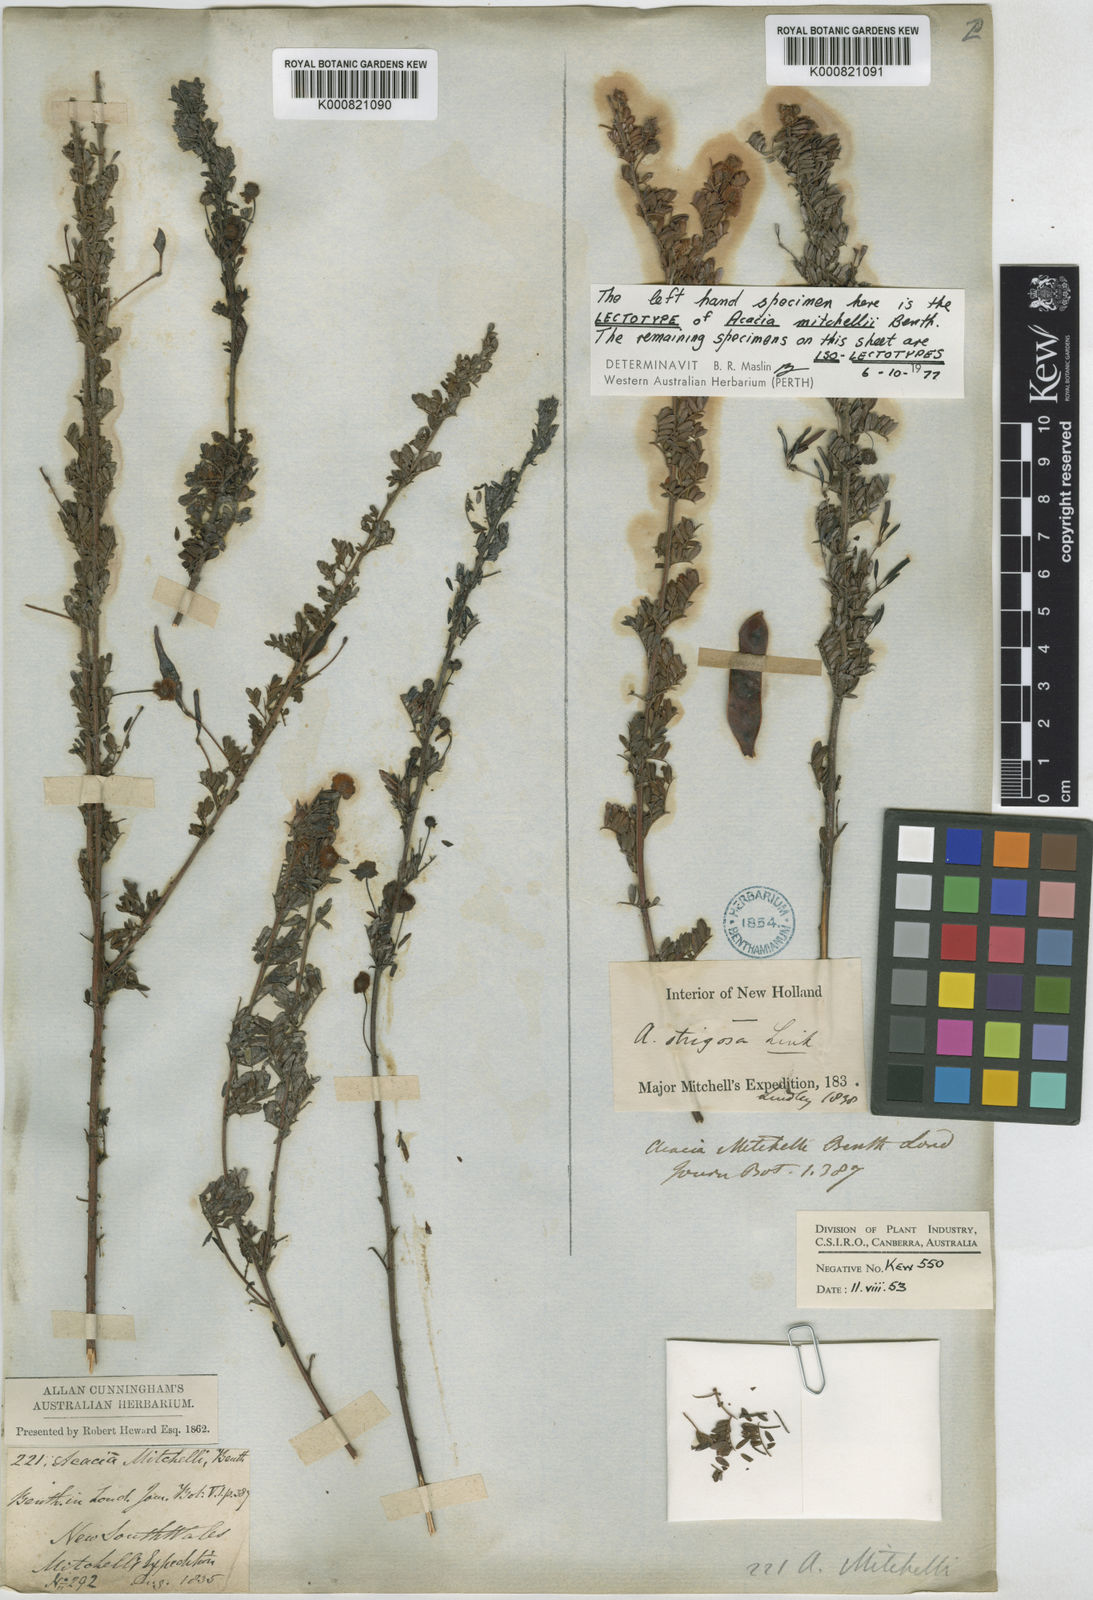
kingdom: Plantae
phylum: Tracheophyta
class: Magnoliopsida
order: Fabales
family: Fabaceae
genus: Acacia
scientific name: Acacia mitchellii
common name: Mitchell's wattle
